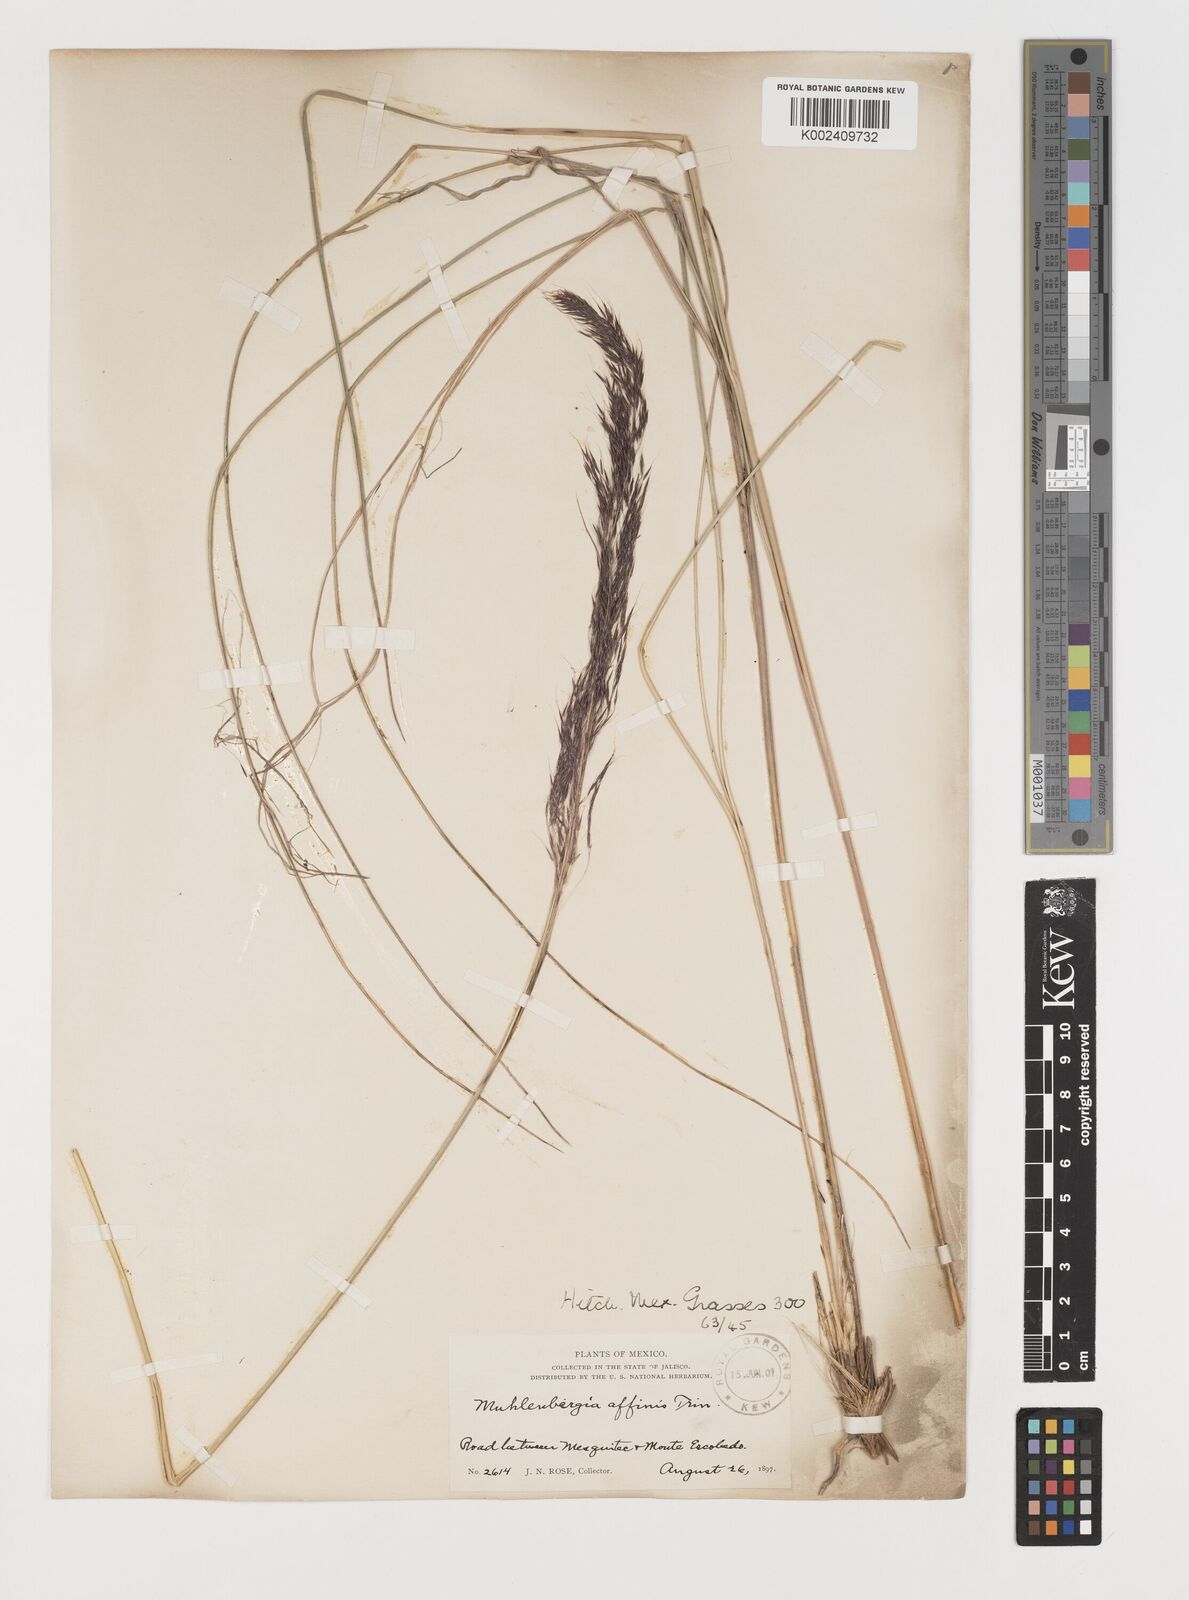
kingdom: Plantae
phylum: Tracheophyta
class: Liliopsida
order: Poales
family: Poaceae
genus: Muhlenbergia
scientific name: Muhlenbergia rigida
